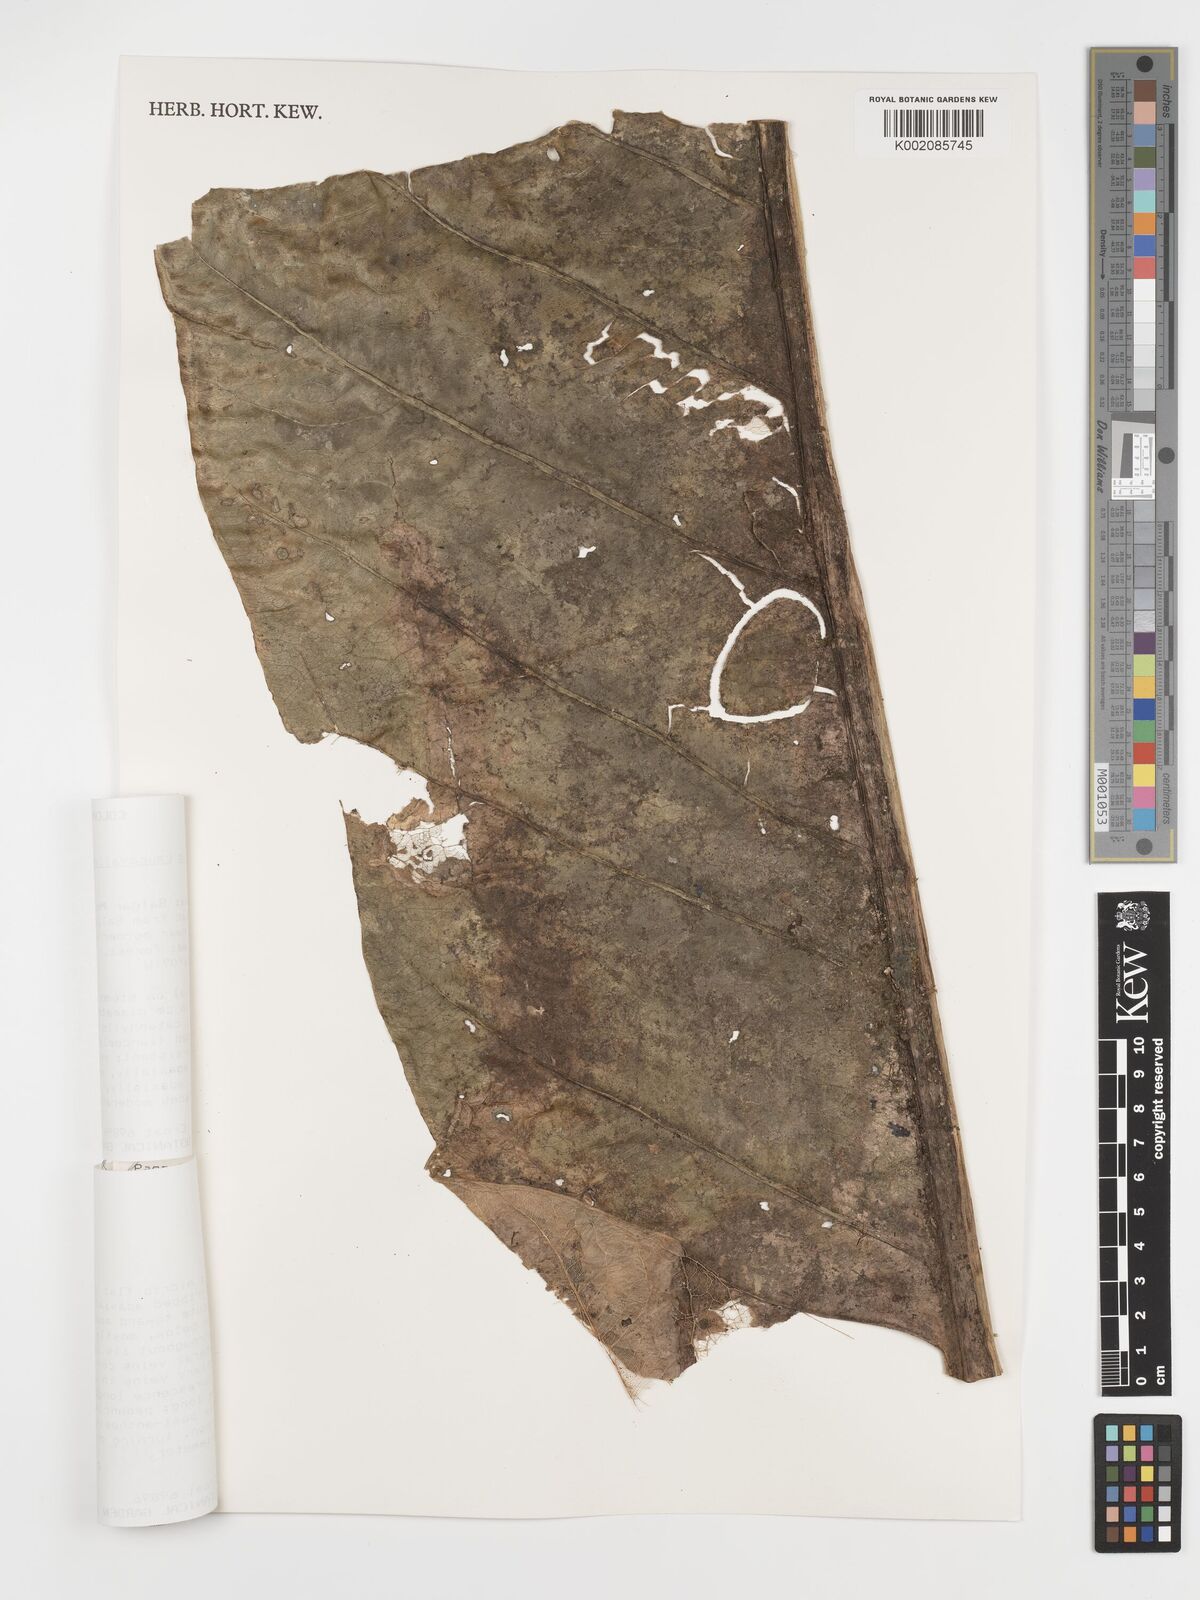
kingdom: Plantae
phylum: Tracheophyta
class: Liliopsida
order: Alismatales
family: Araceae
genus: Anthurium
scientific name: Anthurium caucavallense
